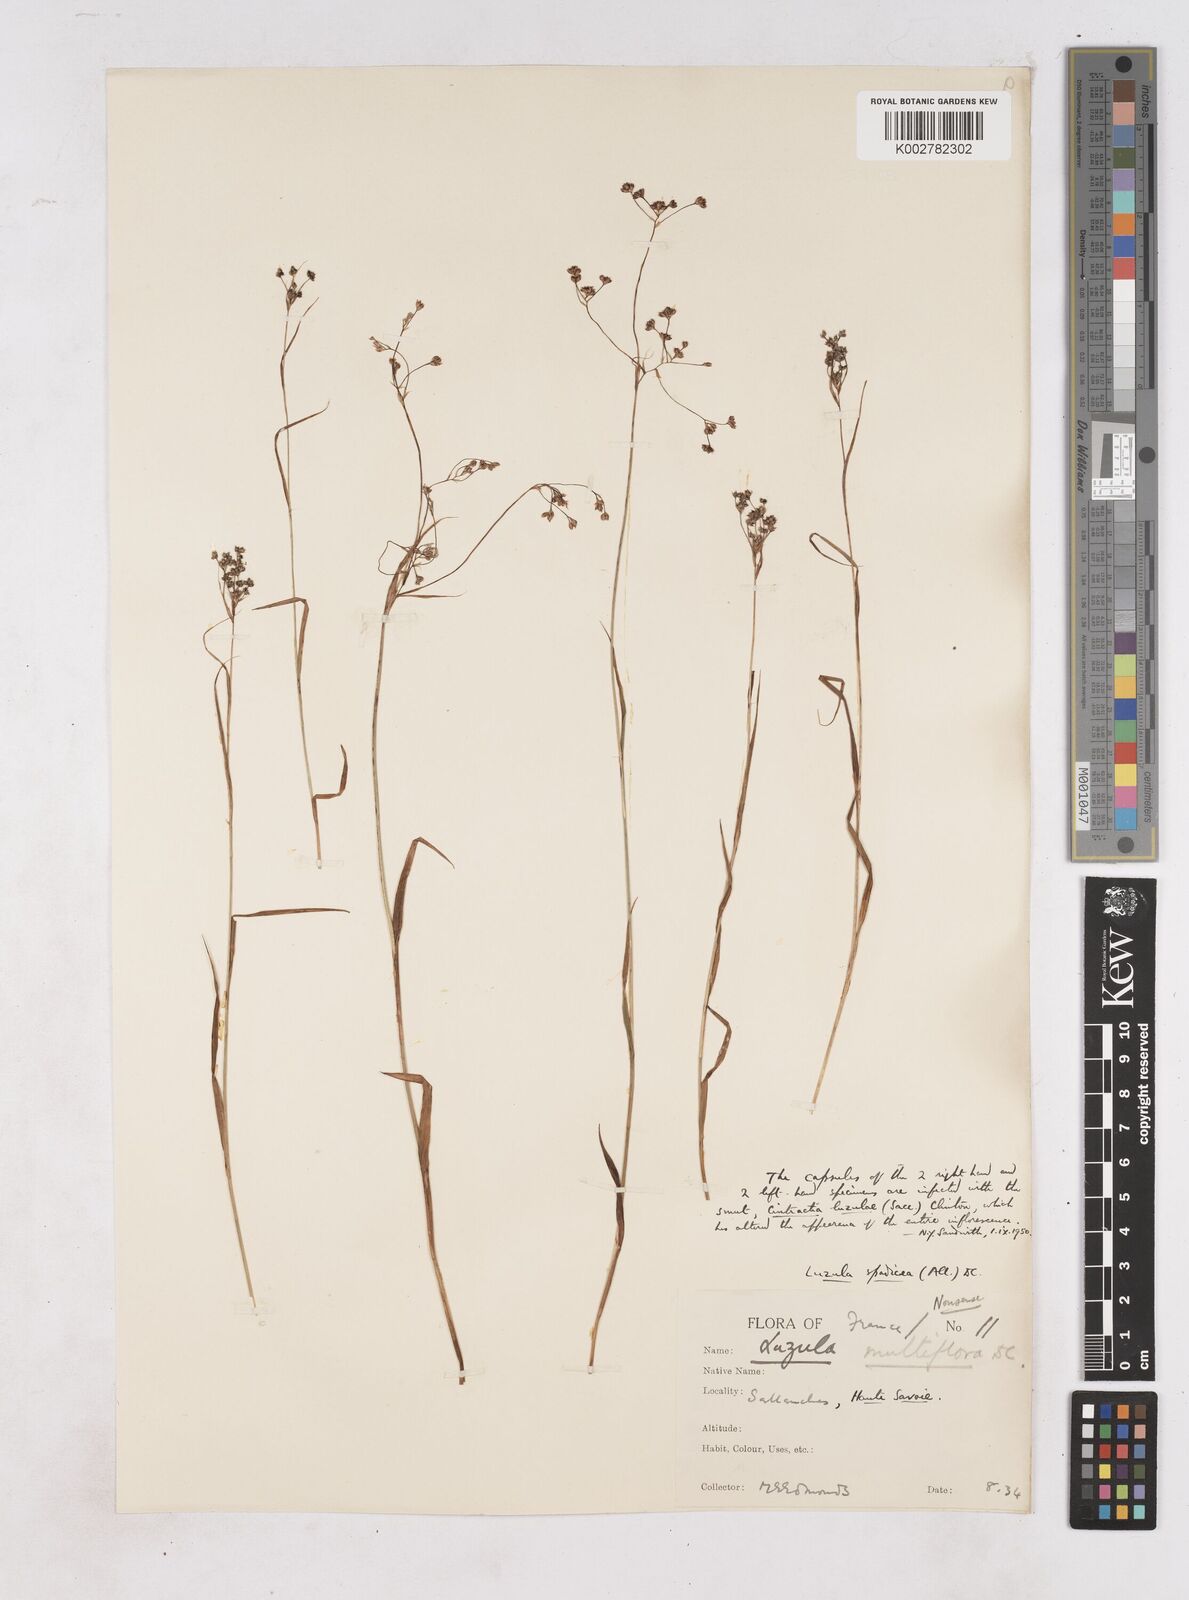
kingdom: Plantae
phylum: Tracheophyta
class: Liliopsida
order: Poales
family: Juncaceae
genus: Luzula
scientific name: Luzula alpinopilosa
